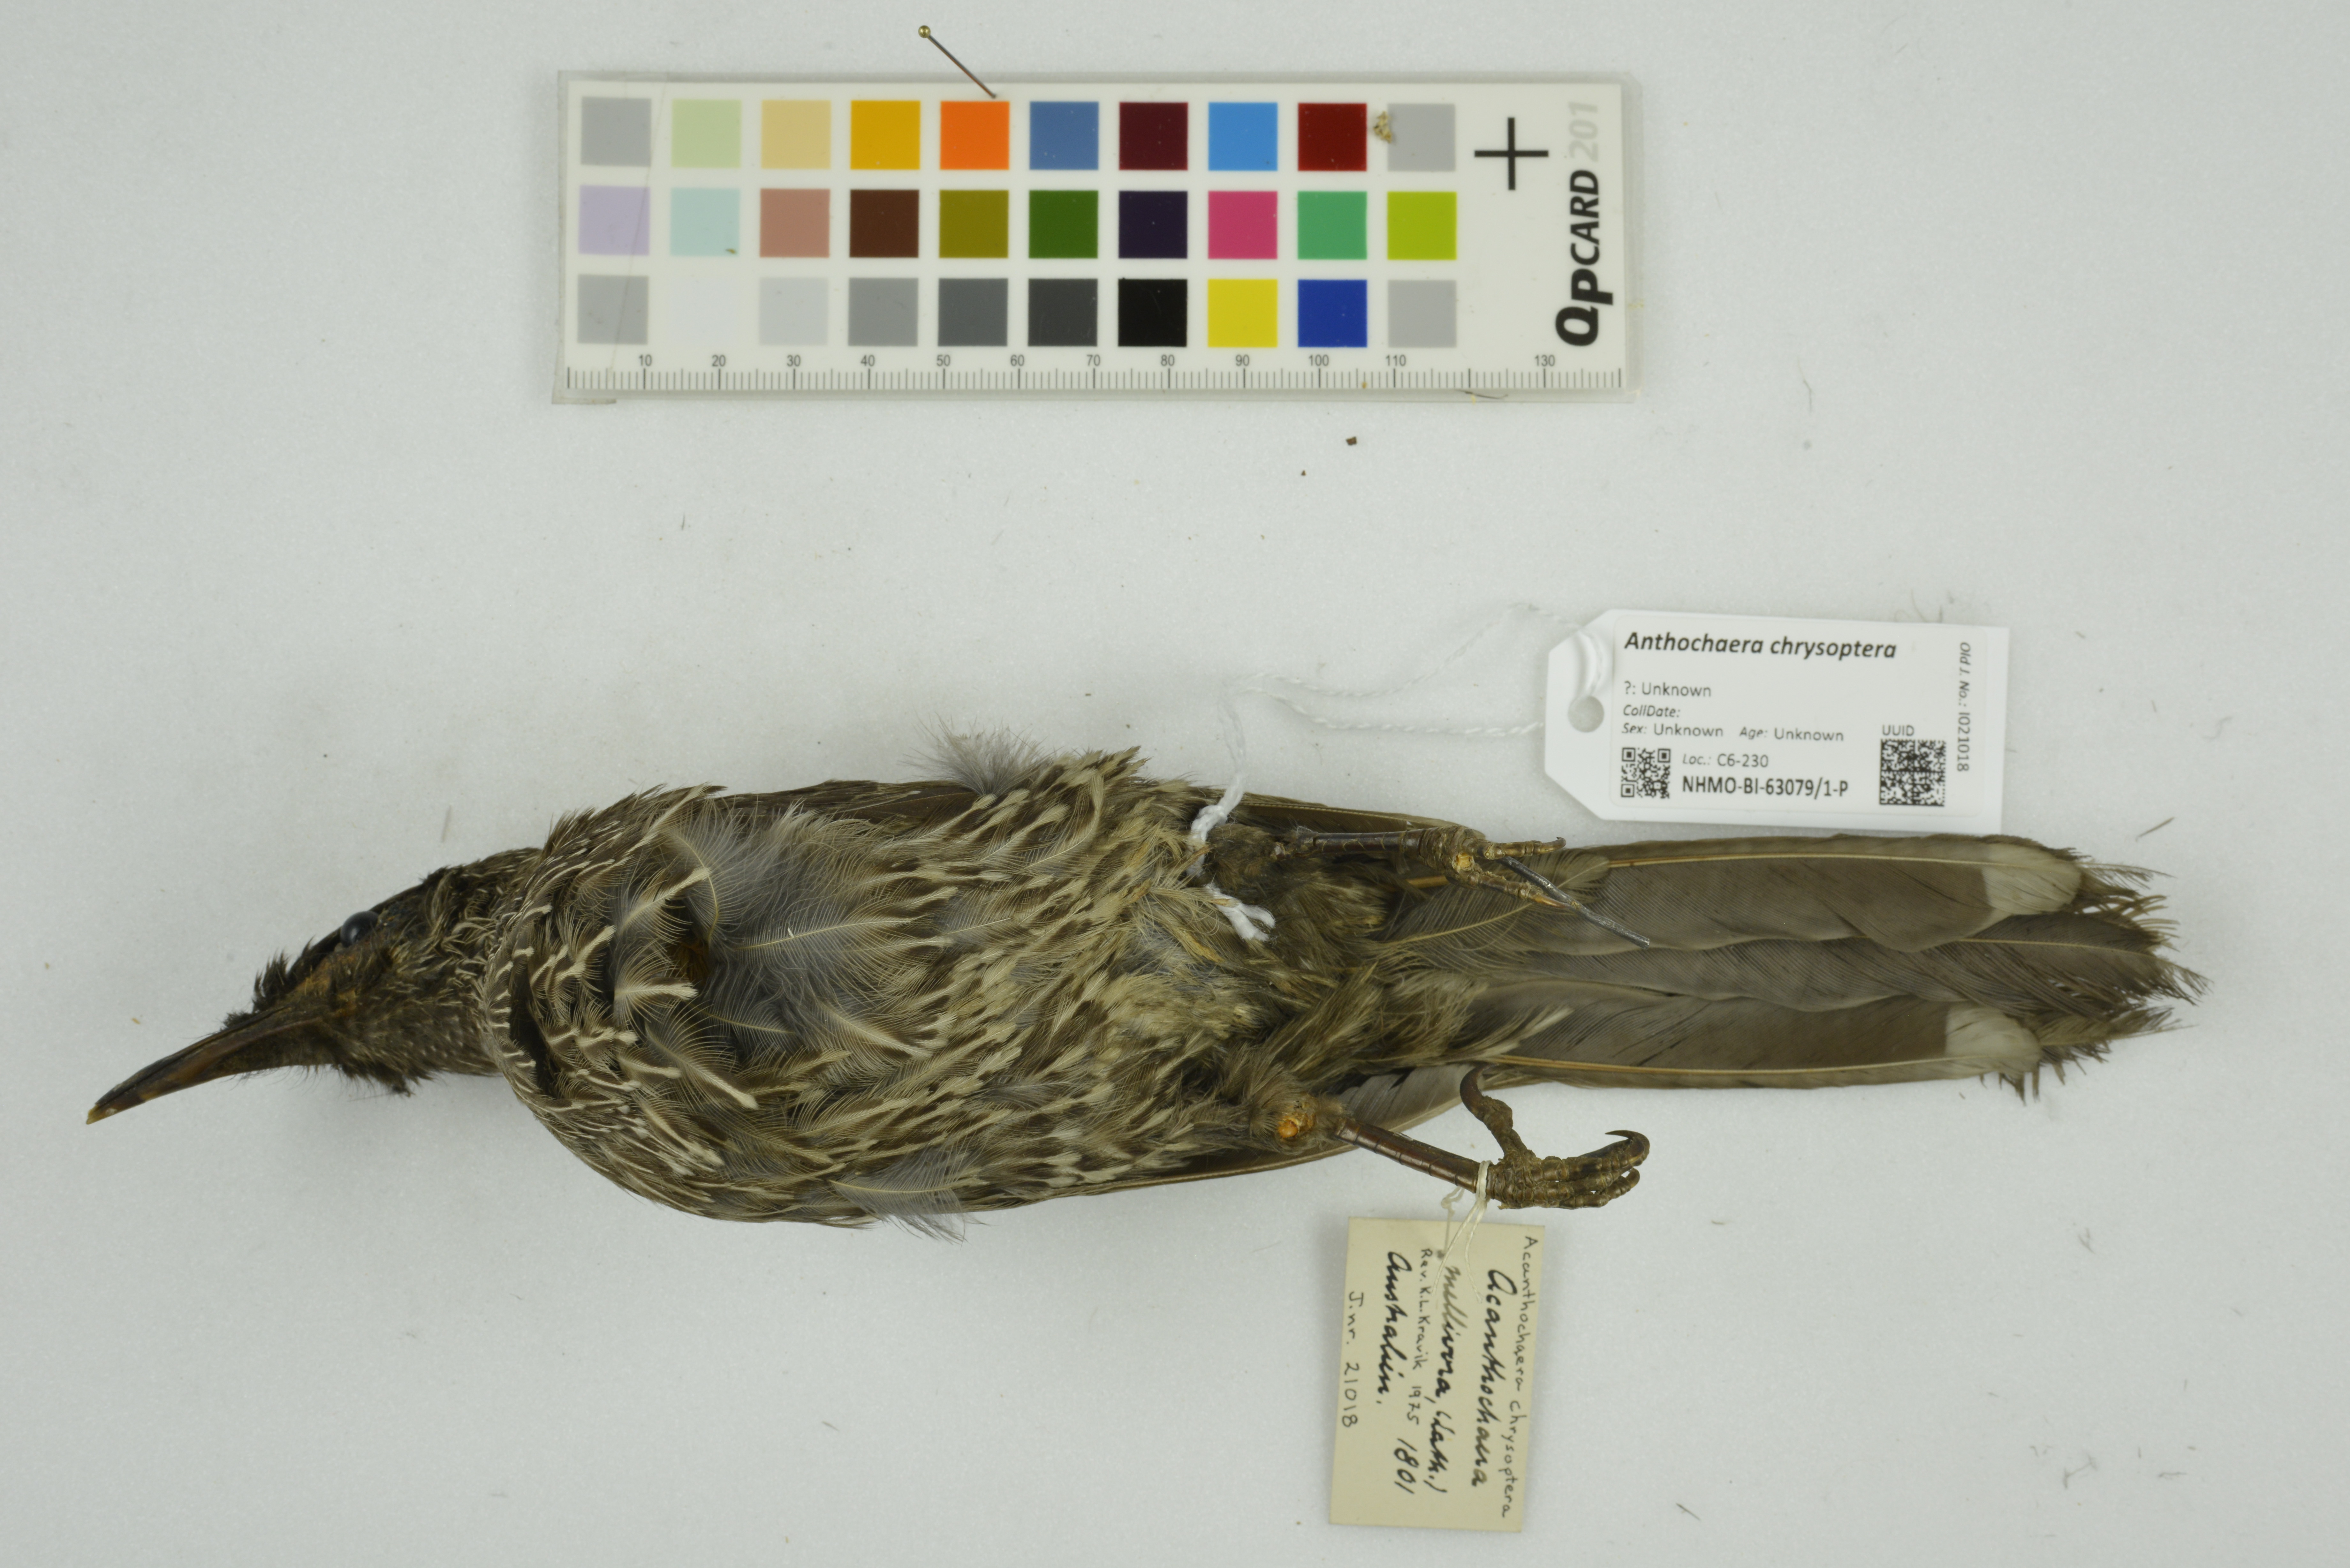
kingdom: Animalia
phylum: Chordata
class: Aves
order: Passeriformes
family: Meliphagidae
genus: Anthochaera
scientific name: Anthochaera chrysoptera
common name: Little wattlebird
